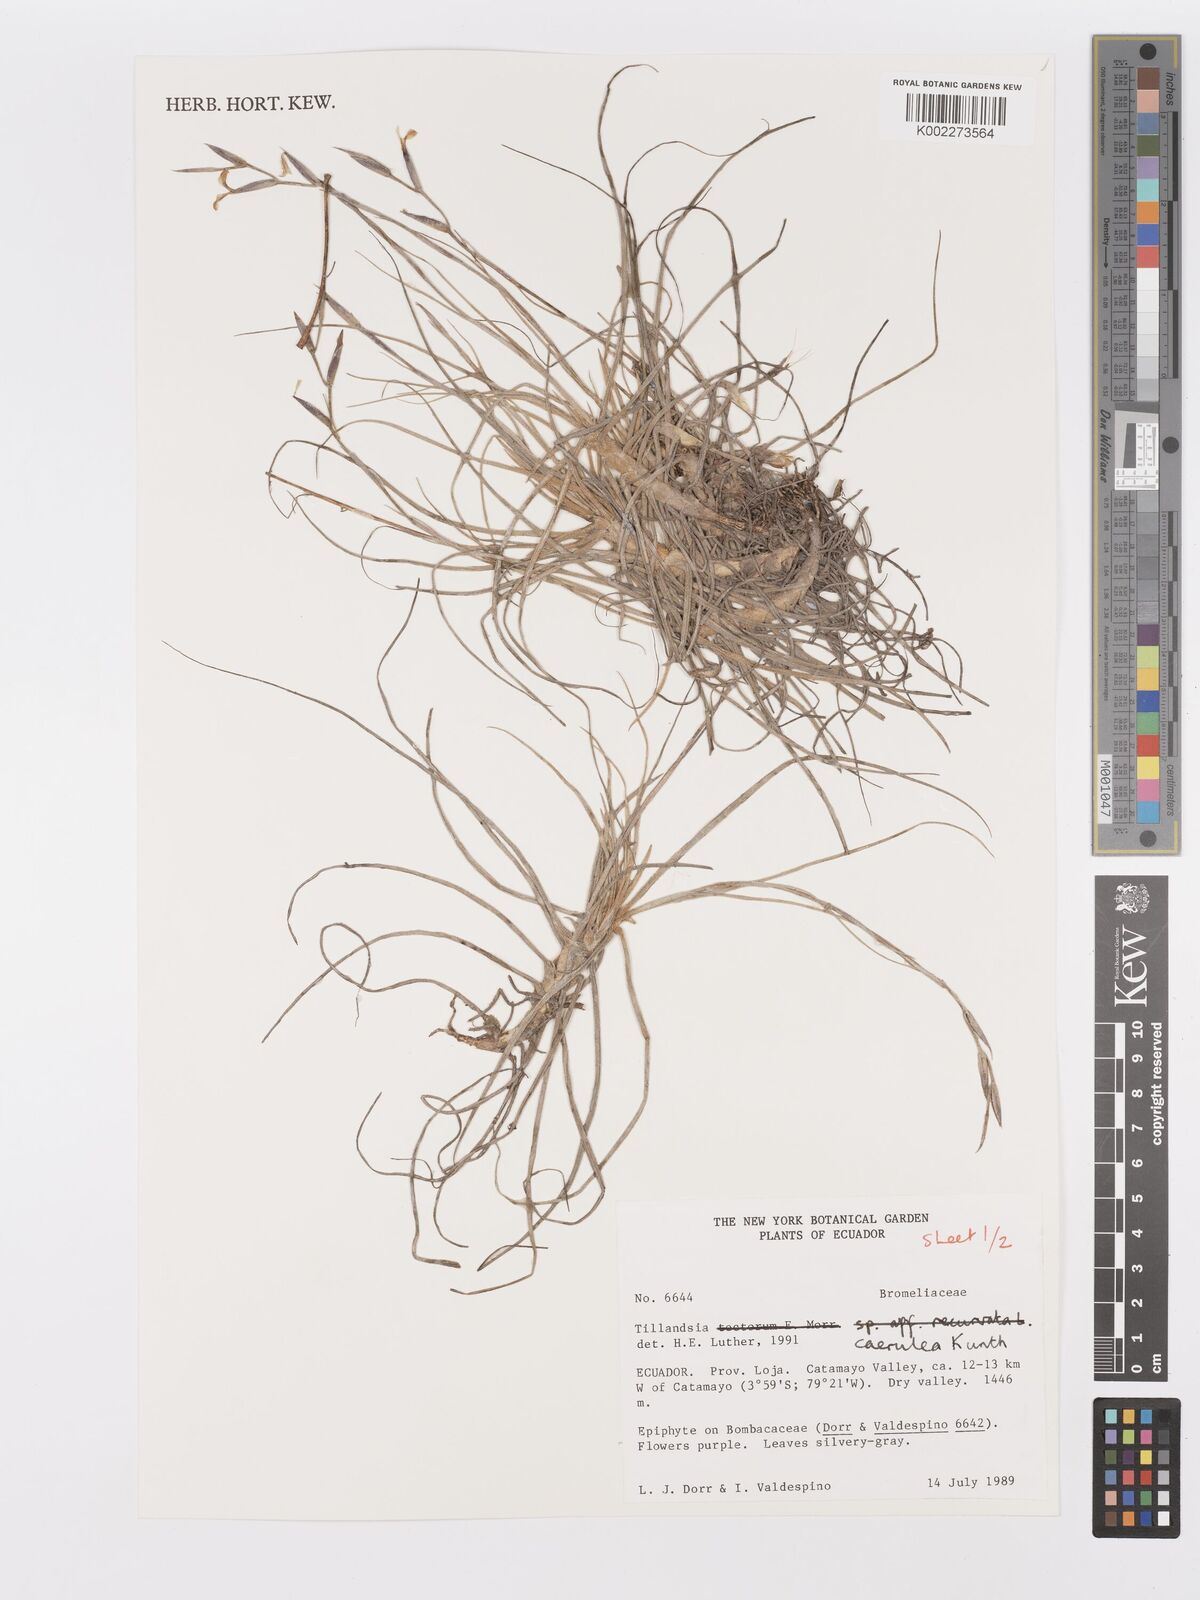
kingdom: Plantae
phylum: Tracheophyta
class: Liliopsida
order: Poales
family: Bromeliaceae
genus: Tillandsia
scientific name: Tillandsia caerulea
